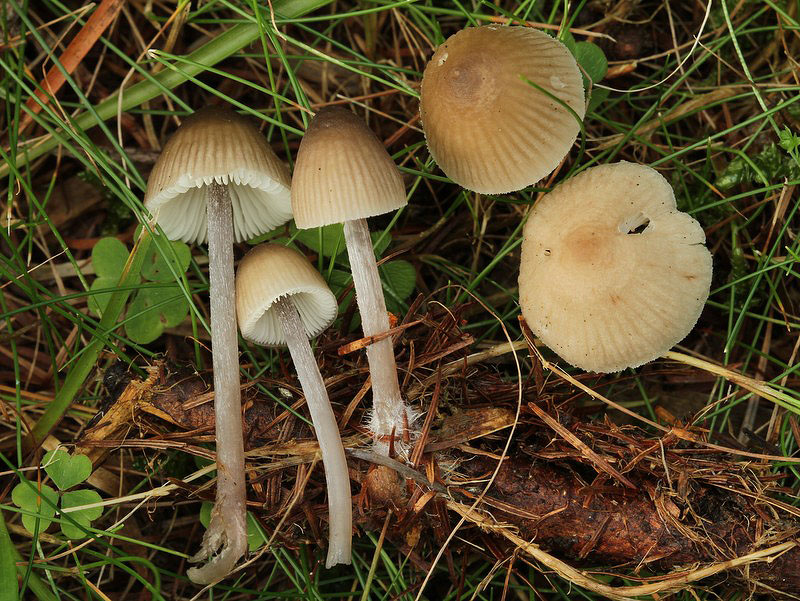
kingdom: Fungi
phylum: Basidiomycota
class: Agaricomycetes
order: Agaricales
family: Mycenaceae
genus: Mycena
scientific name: Mycena zephirus
